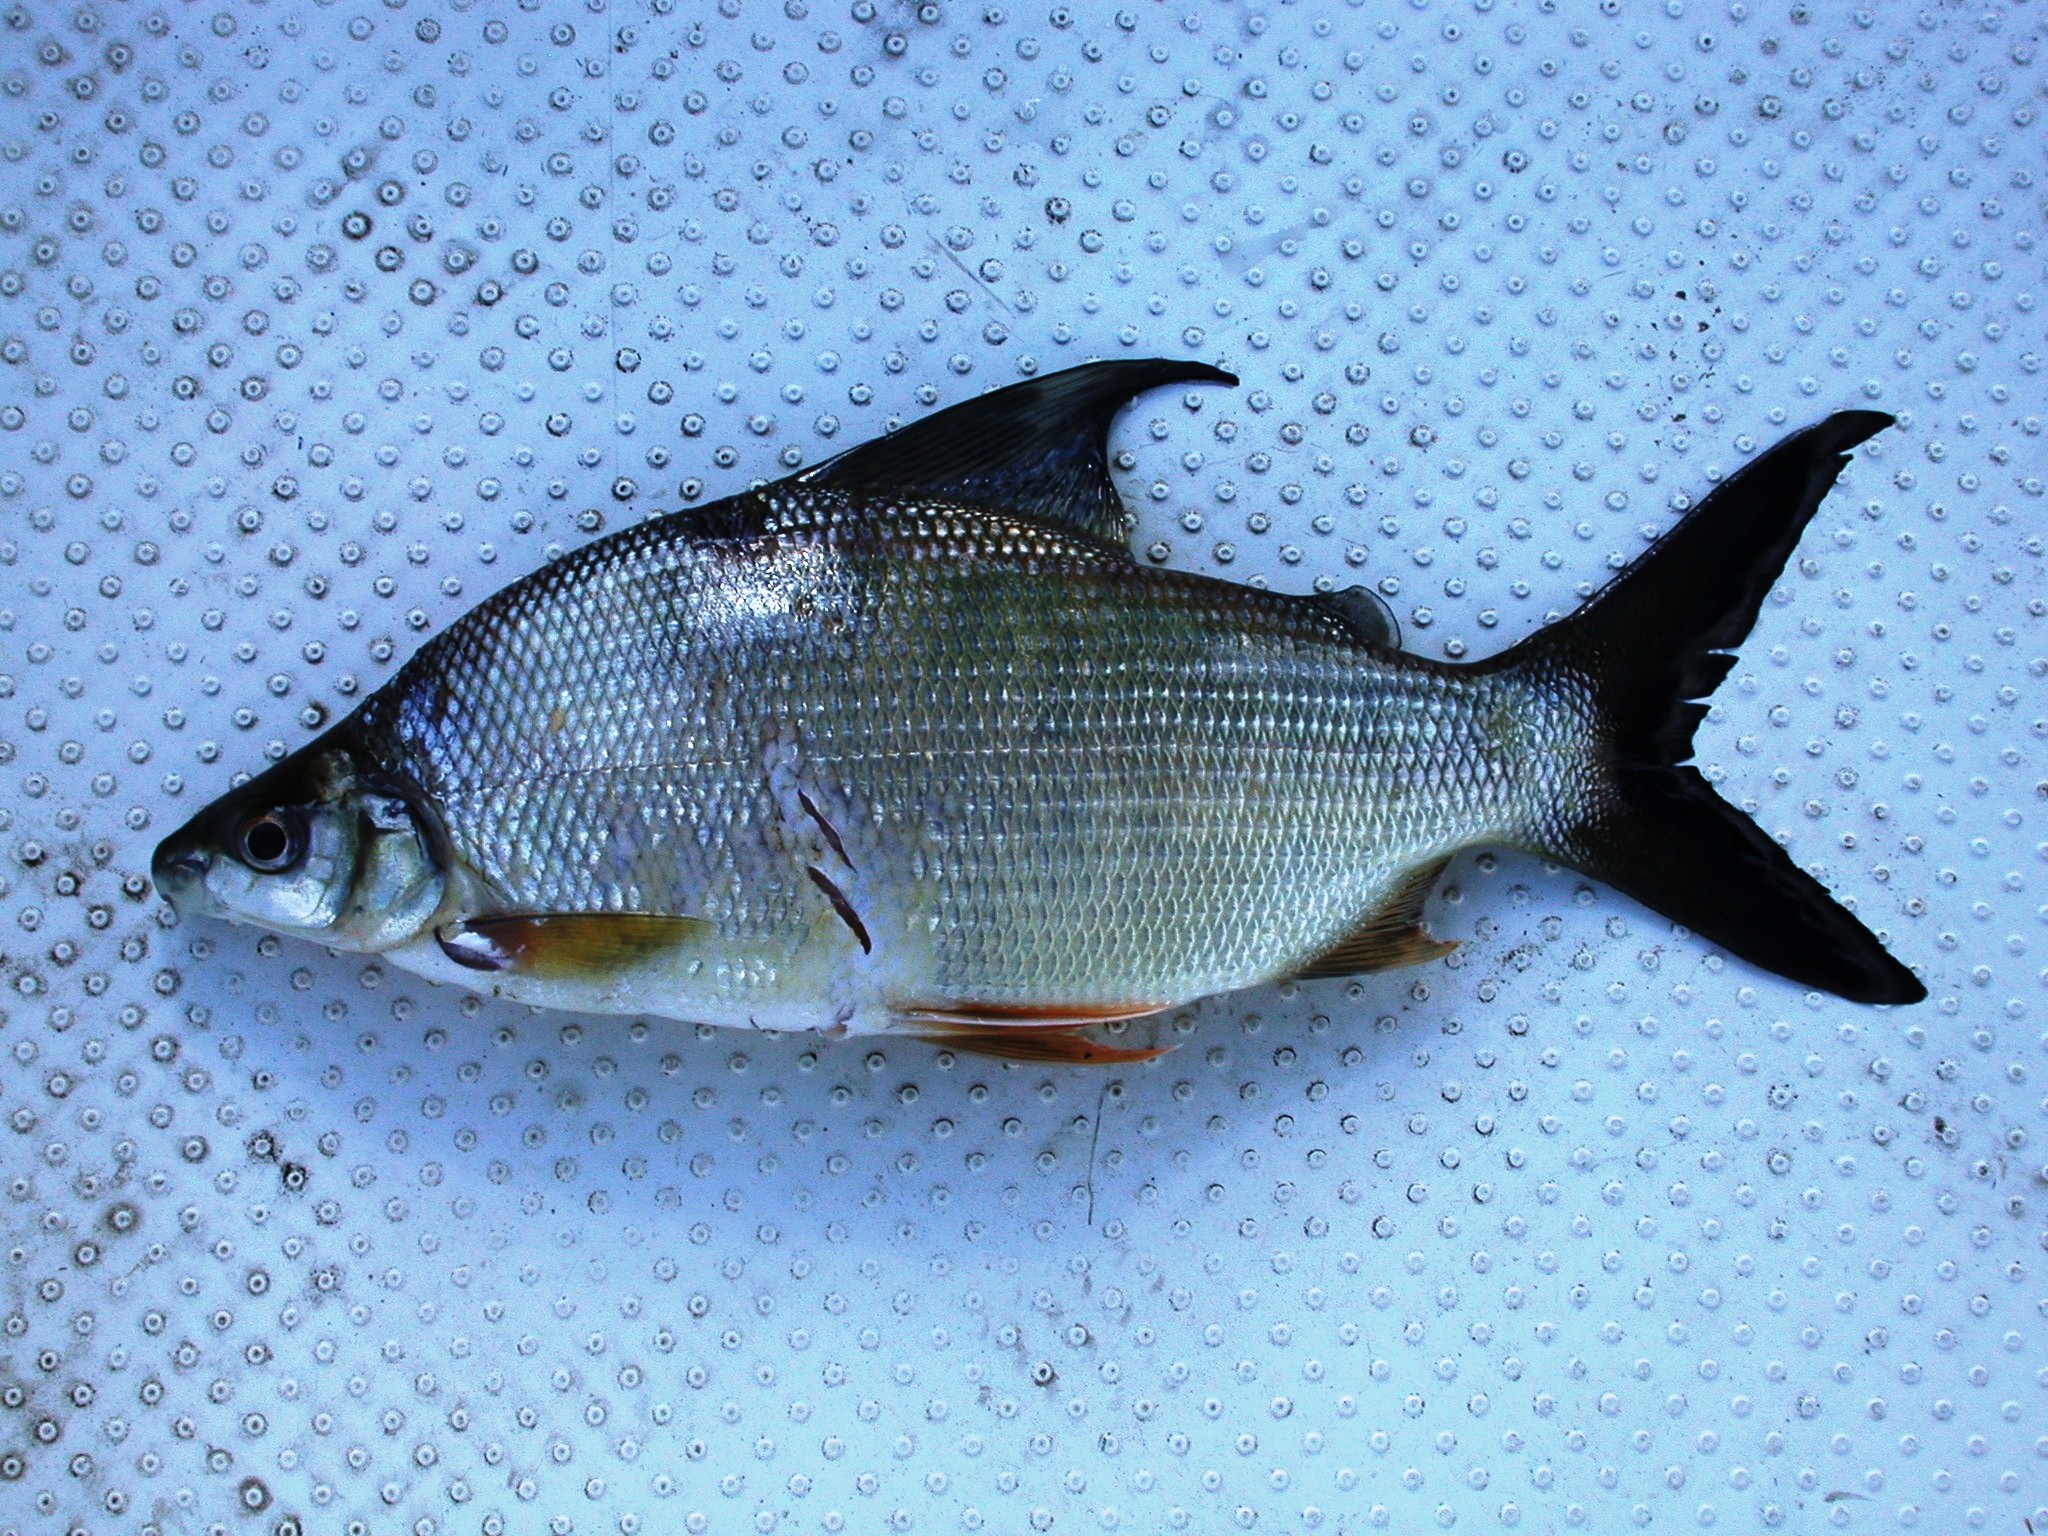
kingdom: Animalia
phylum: Chordata
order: Characiformes
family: Distichodontidae
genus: Distichodus
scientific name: Distichodus schenga
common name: Chessa
